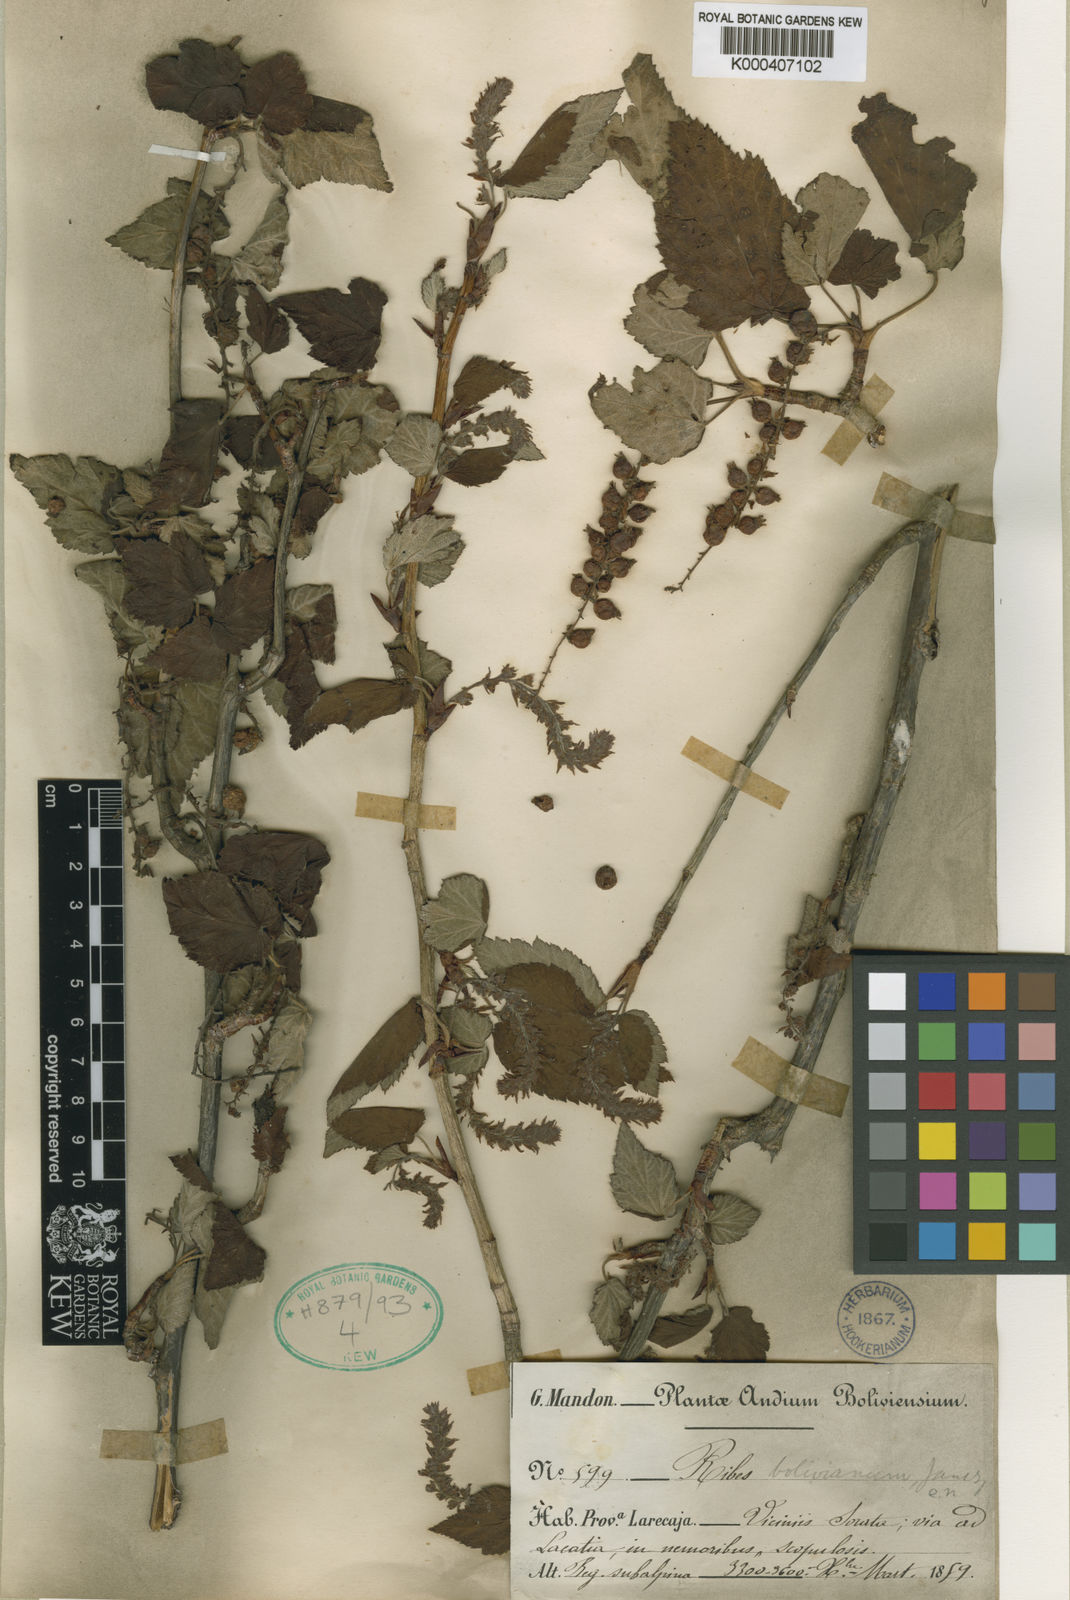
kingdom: Plantae
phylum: Tracheophyta
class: Magnoliopsida
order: Saxifragales
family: Grossulariaceae
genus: Ribes
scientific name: Ribes bolivianum
